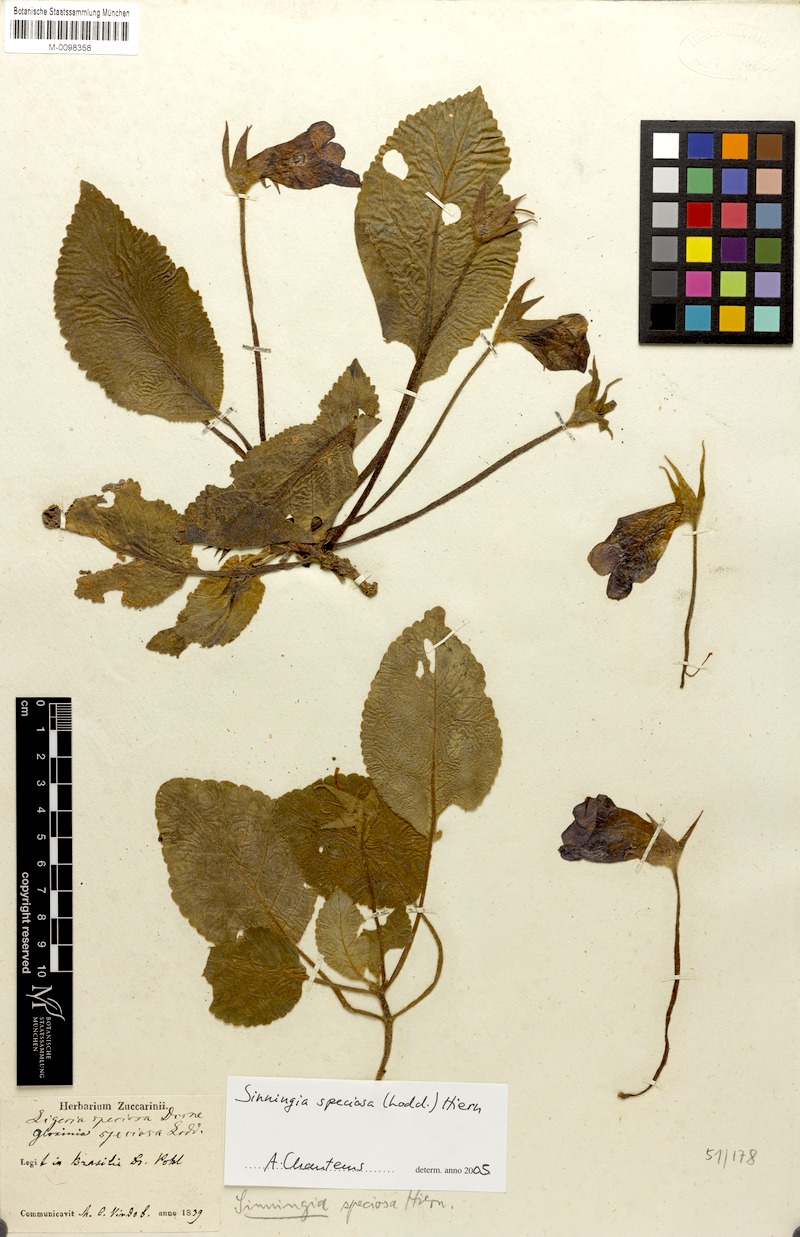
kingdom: Plantae
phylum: Tracheophyta
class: Magnoliopsida
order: Lamiales
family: Gesneriaceae
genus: Sinningia
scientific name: Sinningia speciosa
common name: Brazilian gloxinia
